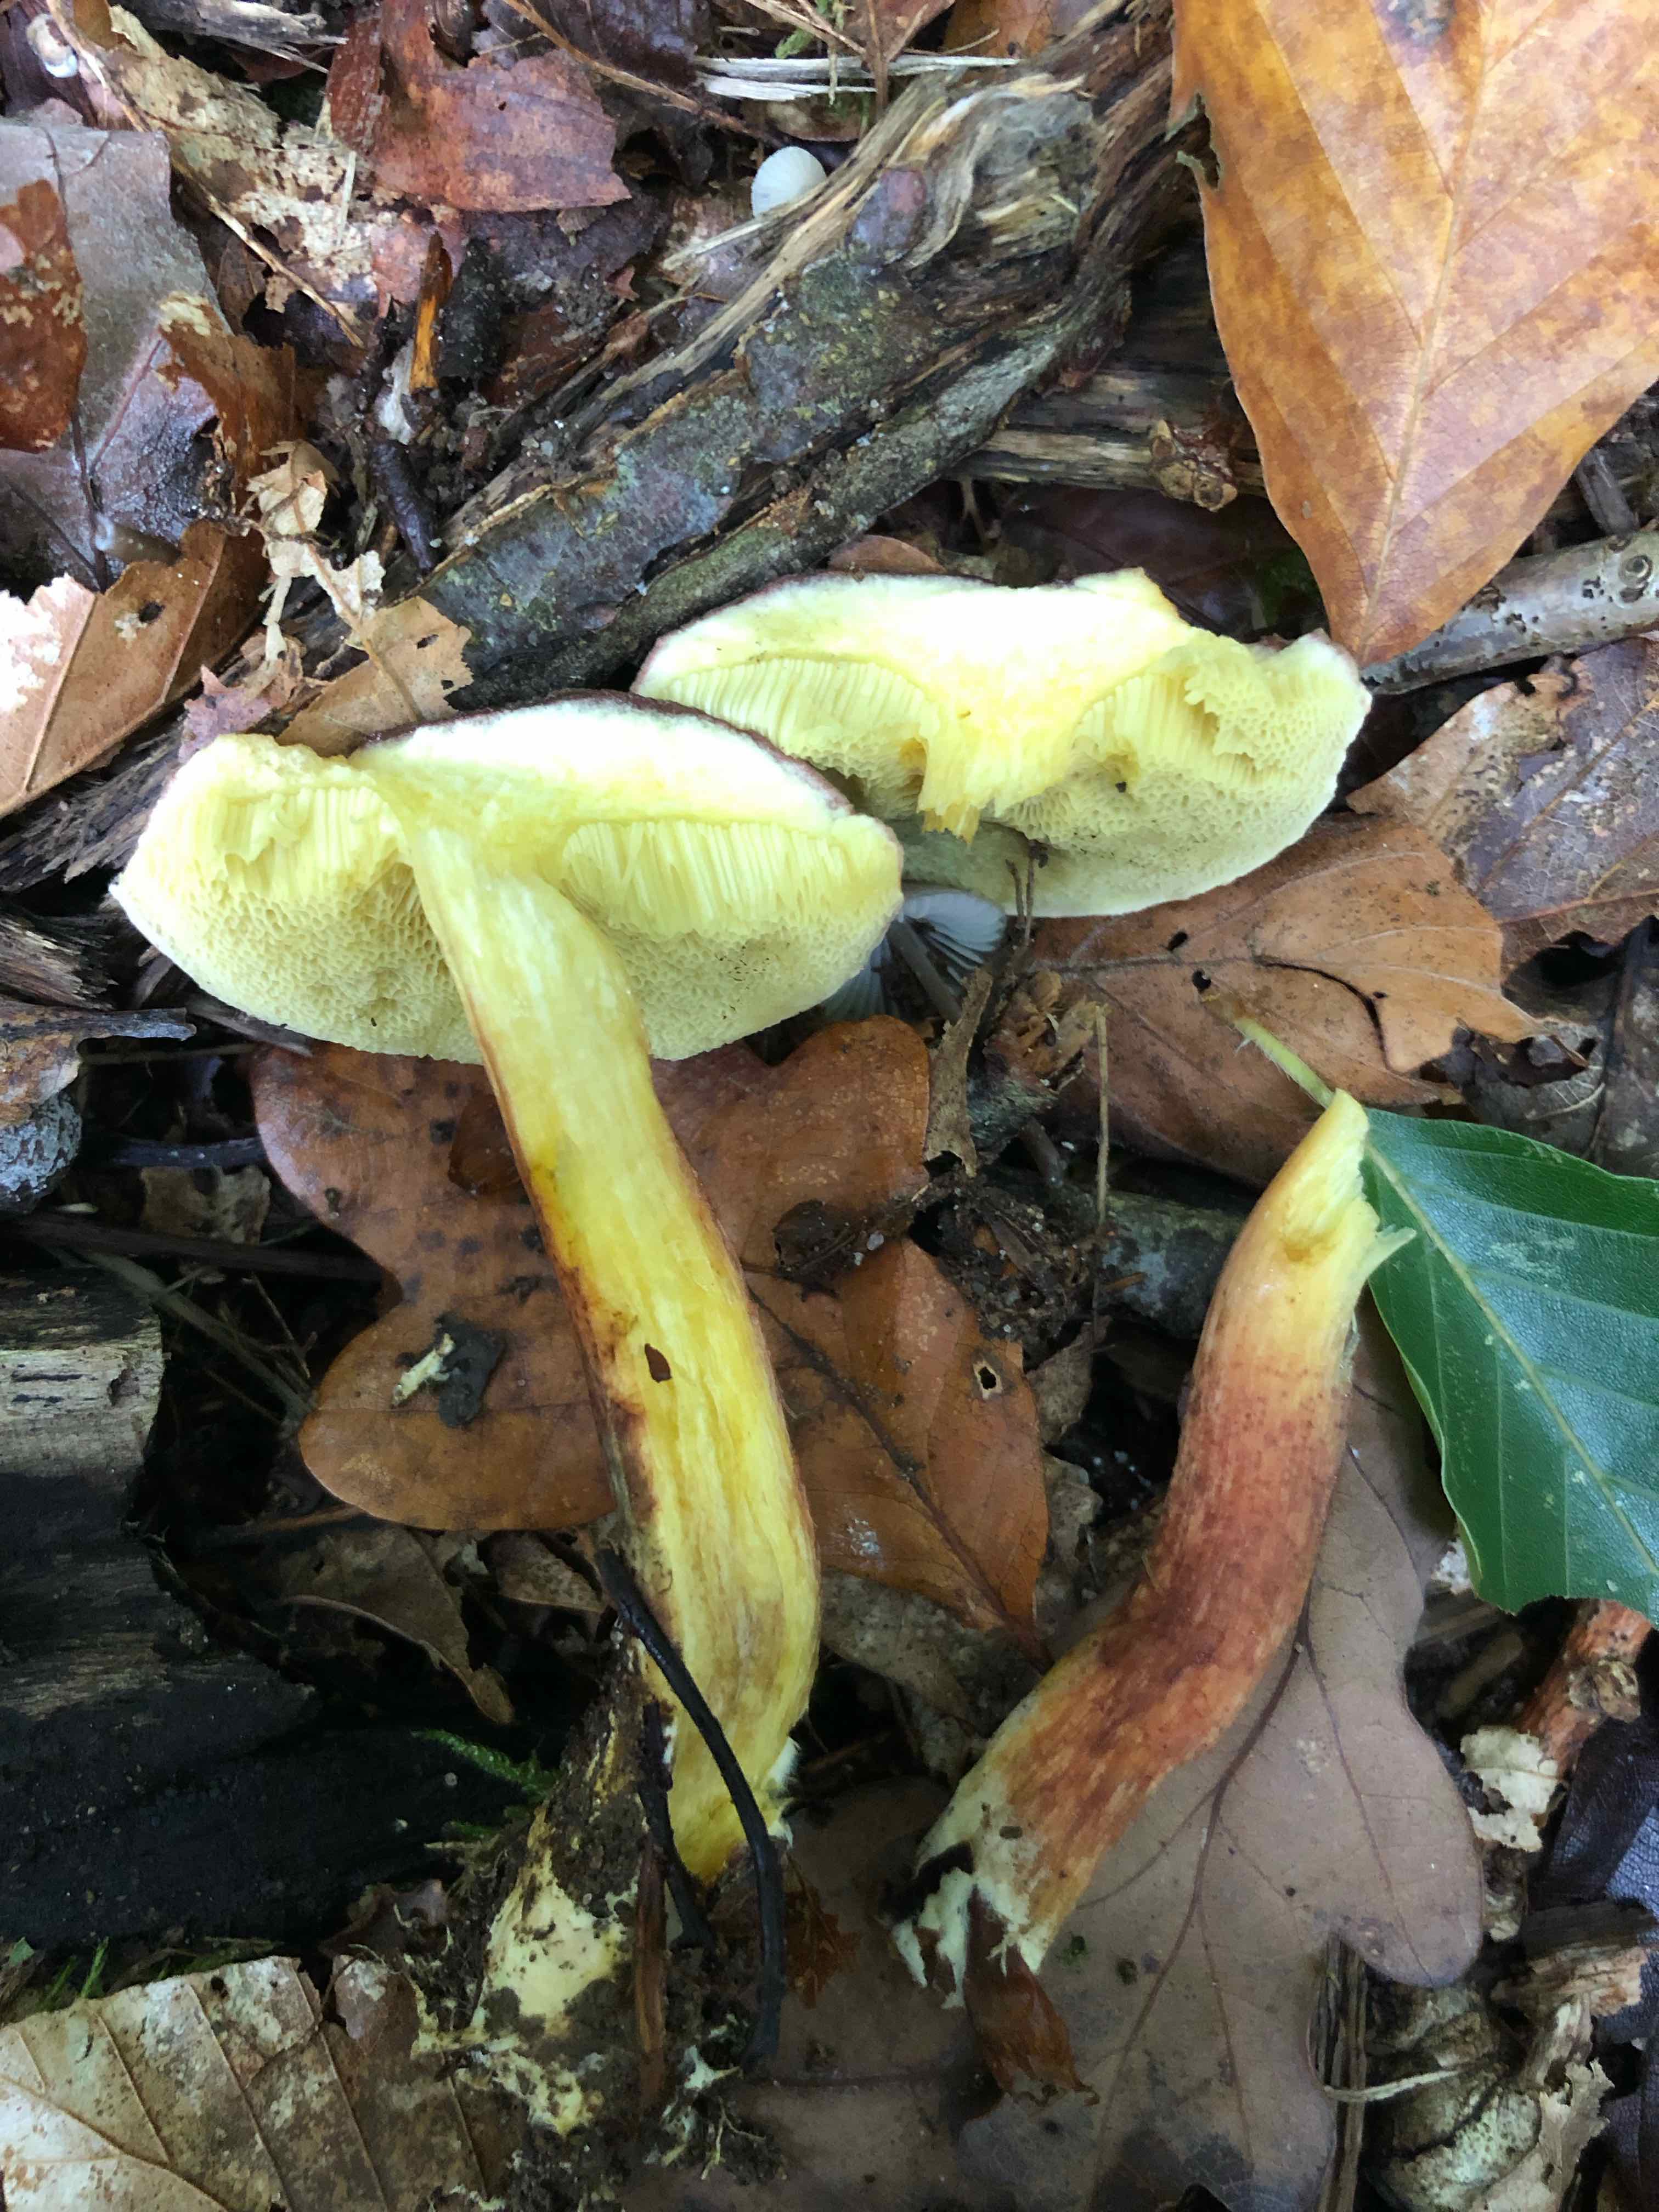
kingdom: Fungi
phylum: Basidiomycota
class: Agaricomycetes
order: Boletales
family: Boletaceae
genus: Xerocomellus
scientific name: Xerocomellus pruinatus
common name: dugget rørhat
